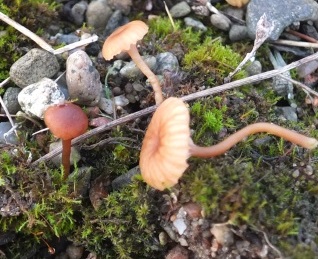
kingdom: Fungi
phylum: Basidiomycota
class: Agaricomycetes
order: Agaricales
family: Tricholomataceae
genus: Omphalina
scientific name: Omphalina pyxidata
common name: rødbrun navlehat
